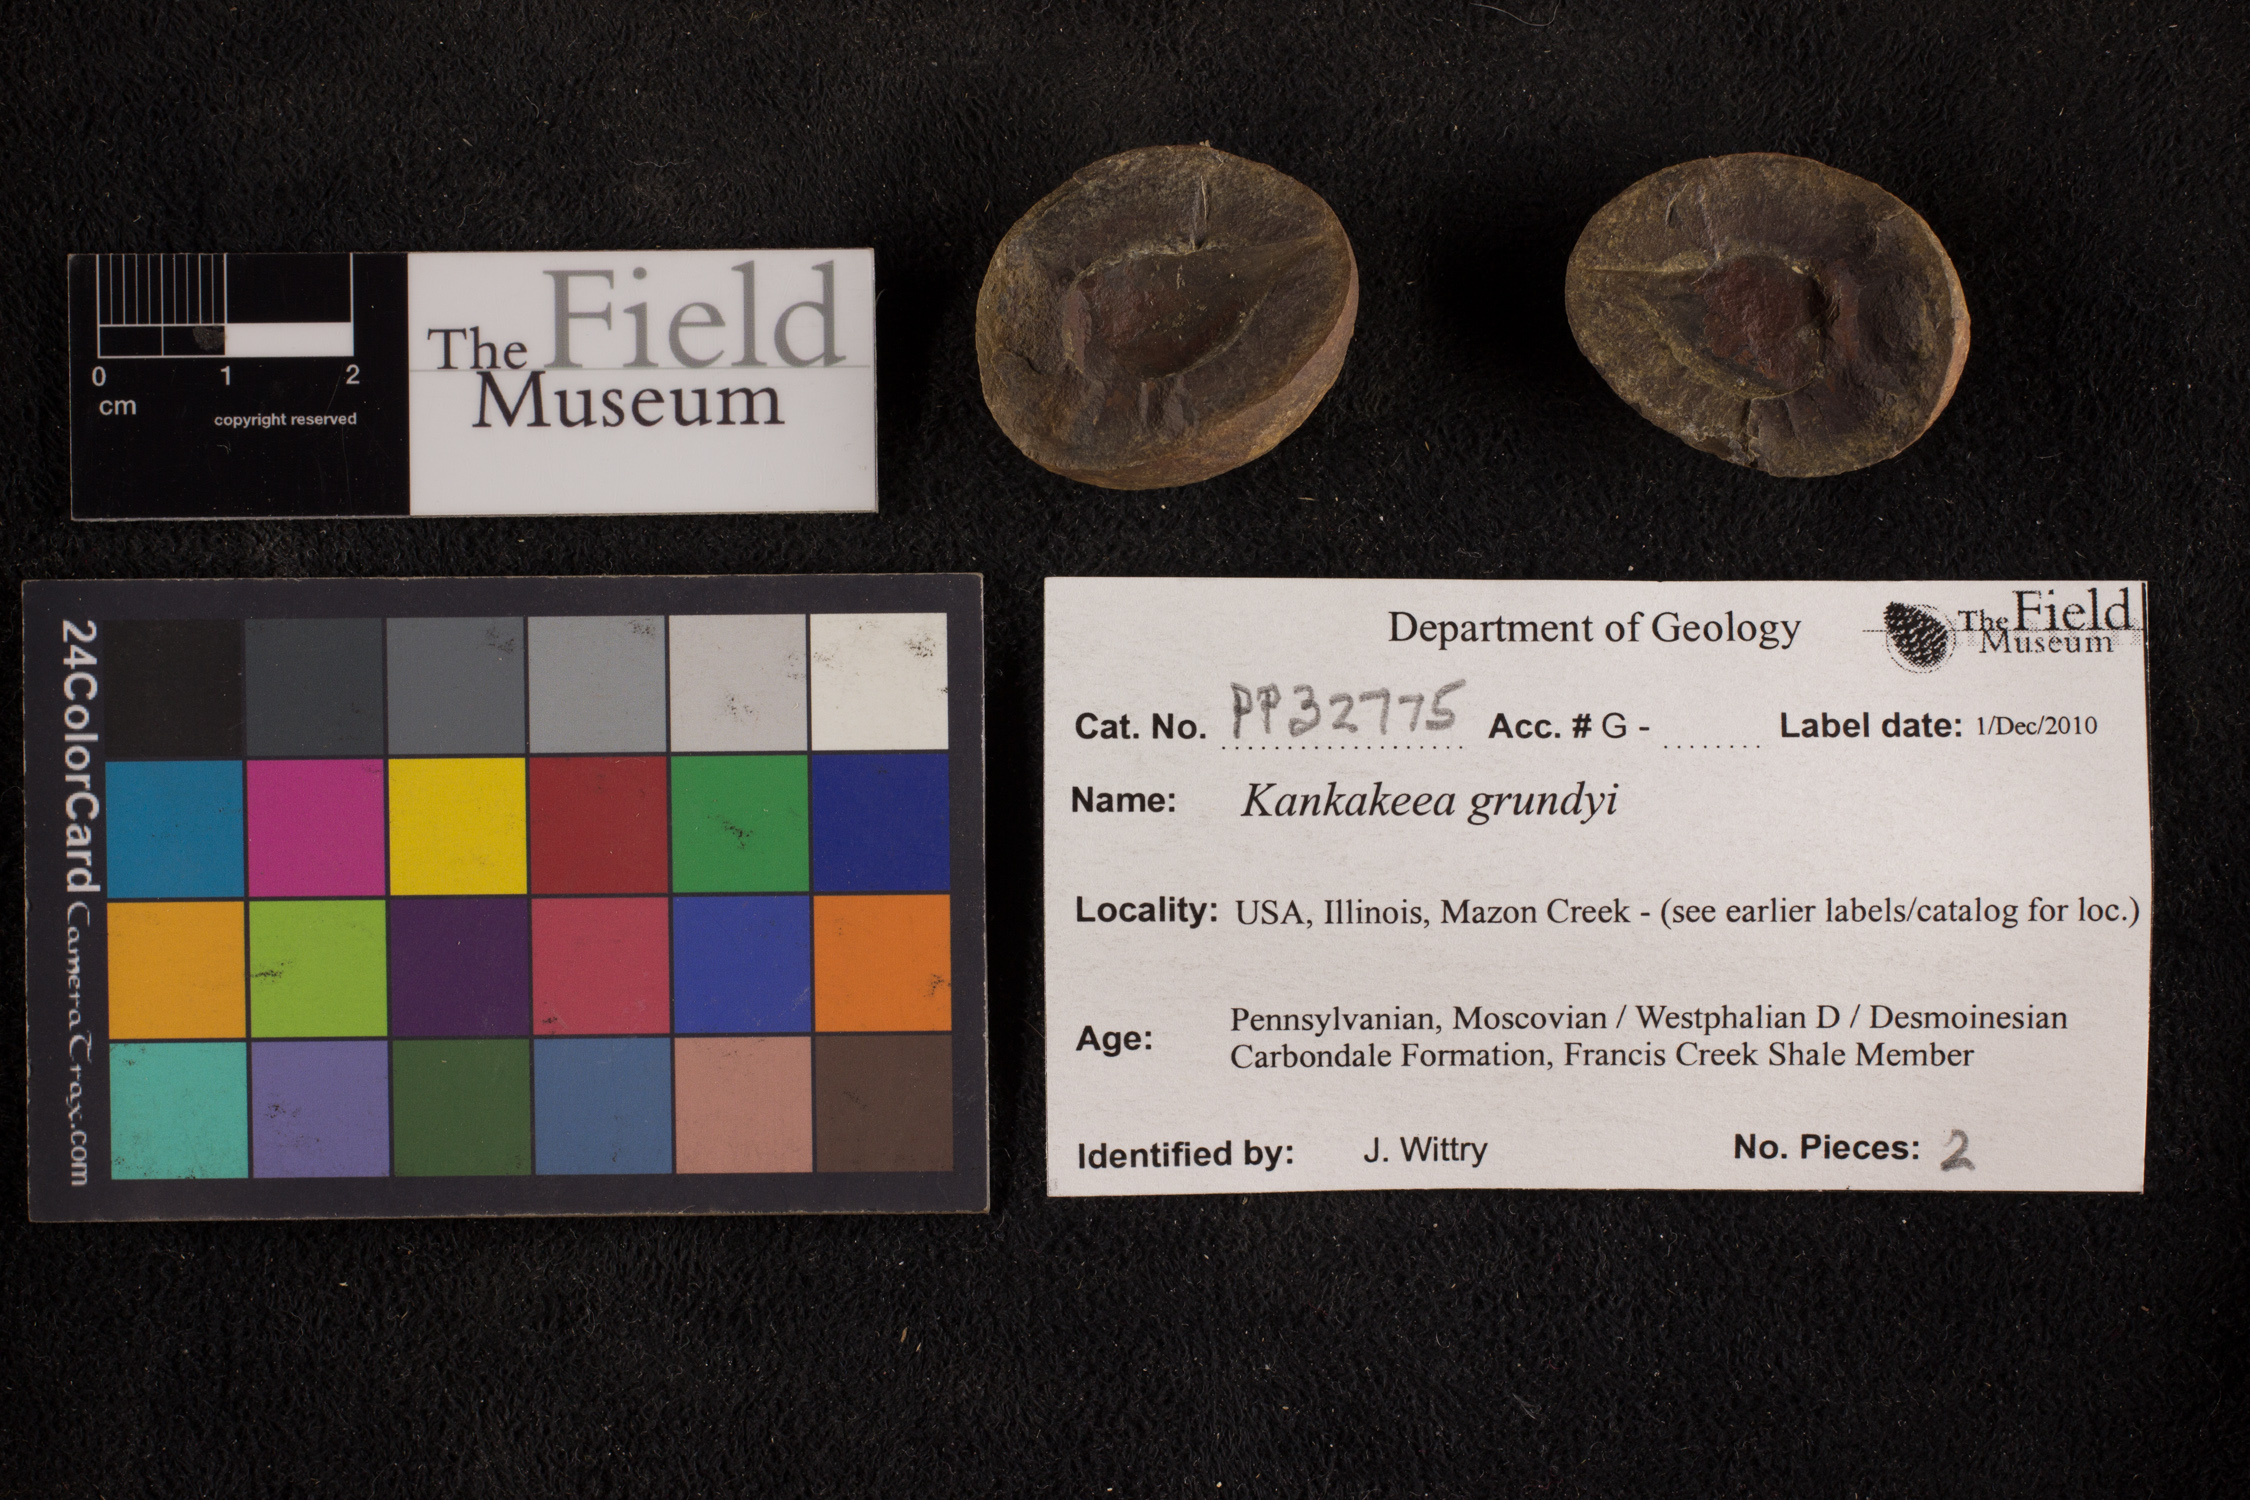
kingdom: Plantae
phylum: Tracheophyta
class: Polypodiopsida
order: Marattiales
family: Marattiaceae
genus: Kankakeea
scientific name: Kankakeea grundyi
